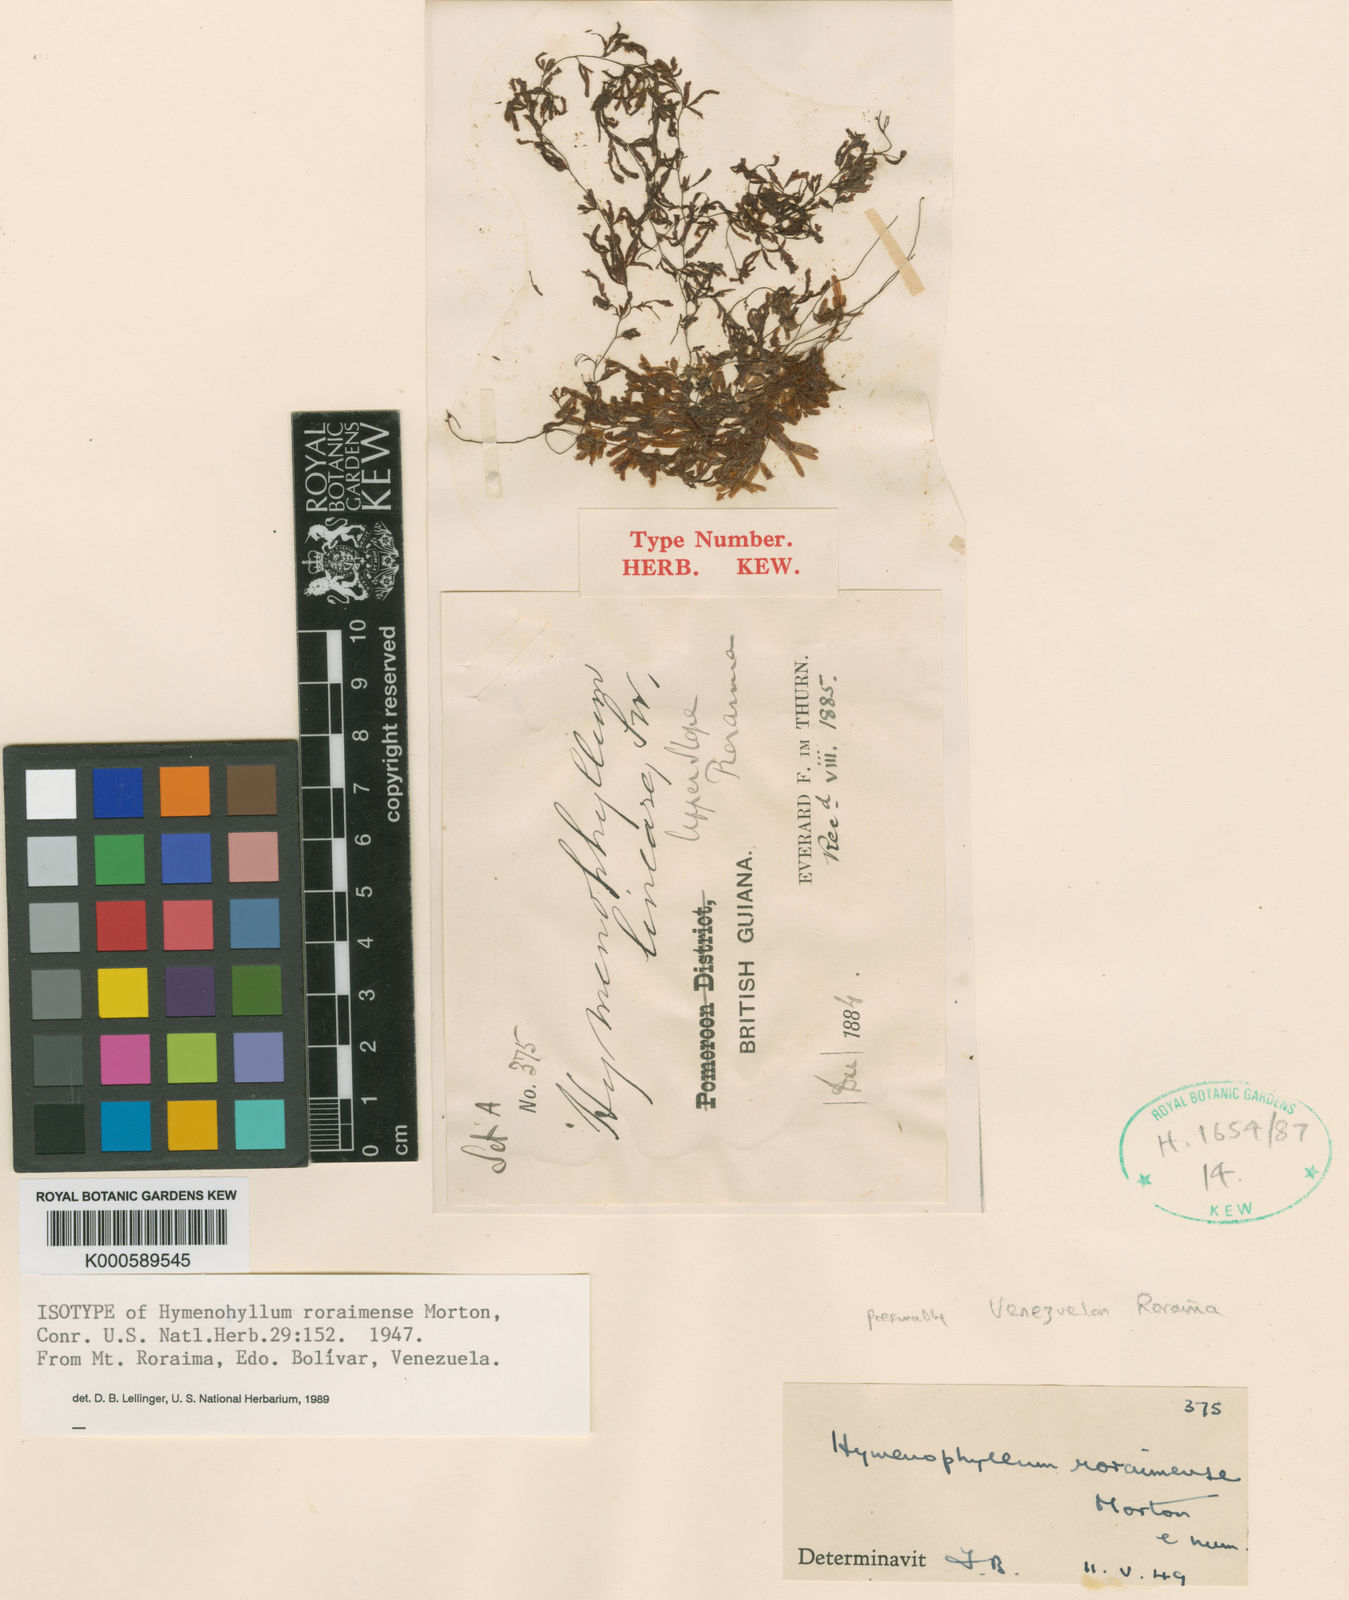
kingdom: Plantae
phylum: Tracheophyta
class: Polypodiopsida
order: Hymenophyllales
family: Hymenophyllaceae
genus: Trichomanes
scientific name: Trichomanes roraimense
